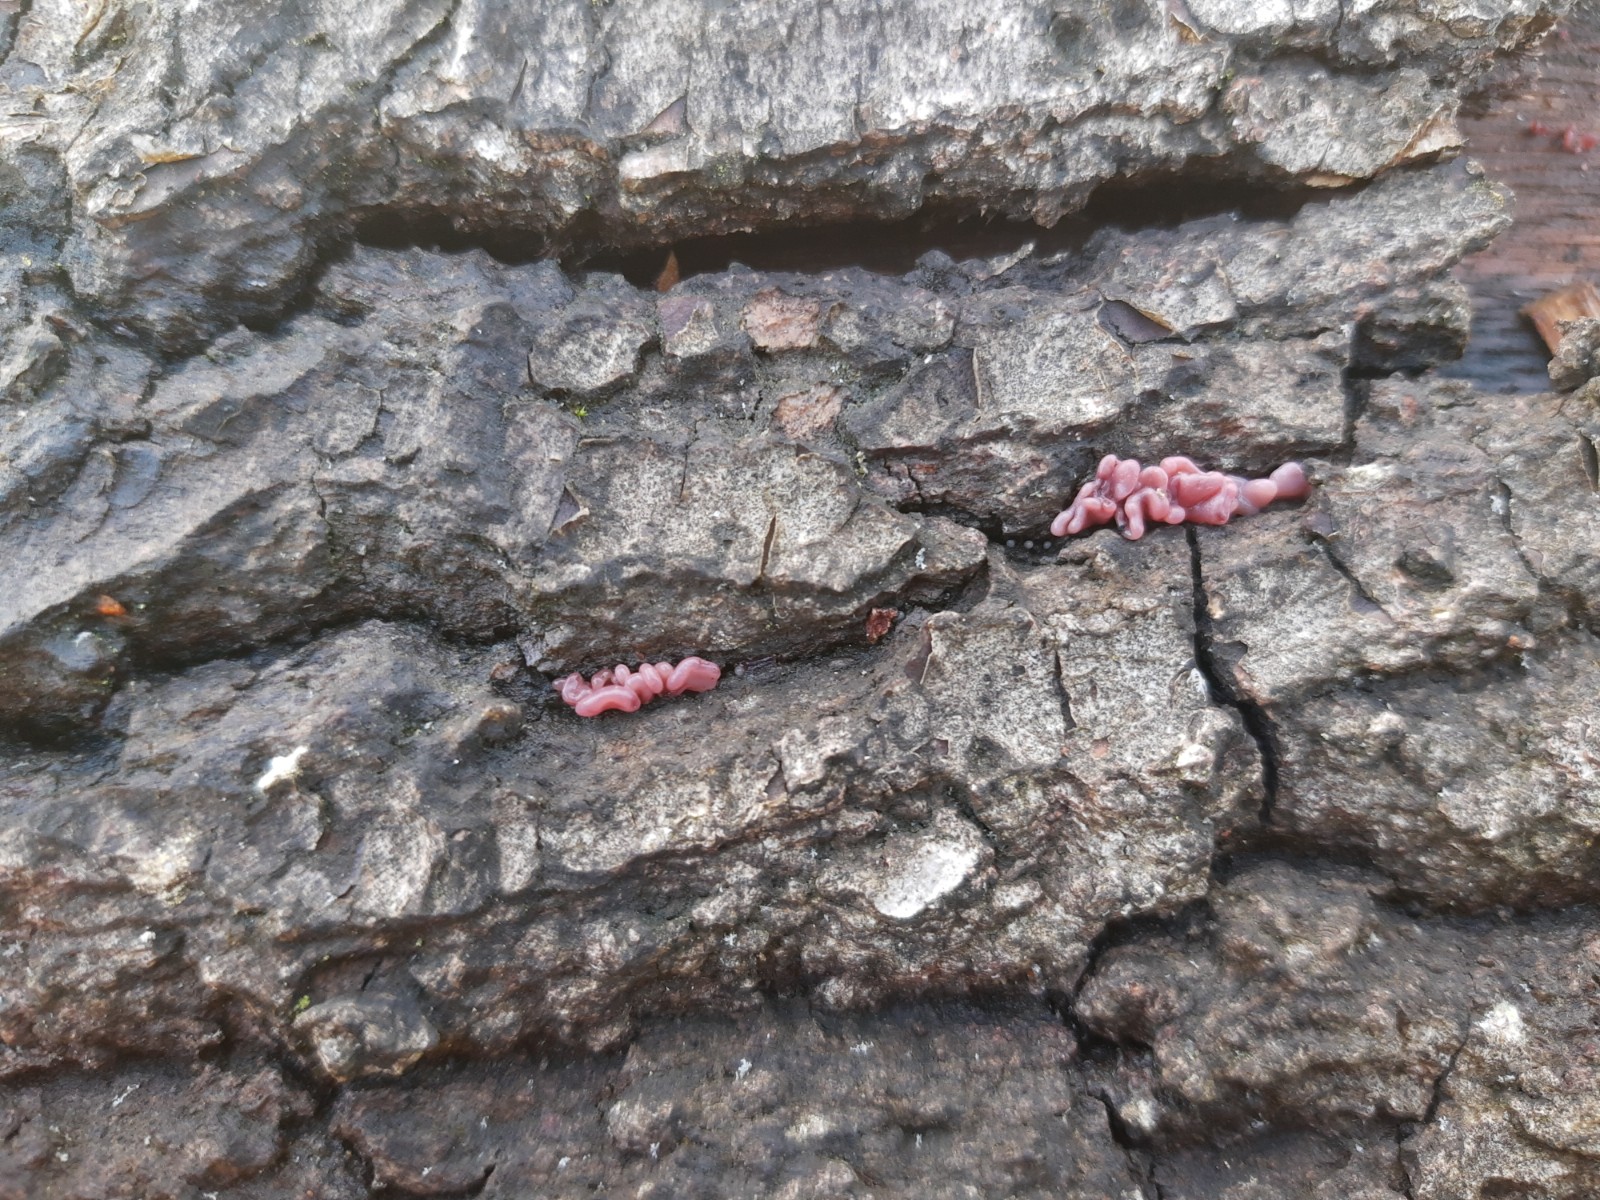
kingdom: Fungi
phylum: Ascomycota
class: Leotiomycetes
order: Helotiales
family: Gelatinodiscaceae
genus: Ascocoryne
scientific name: Ascocoryne sarcoides
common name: rødlilla sejskive
